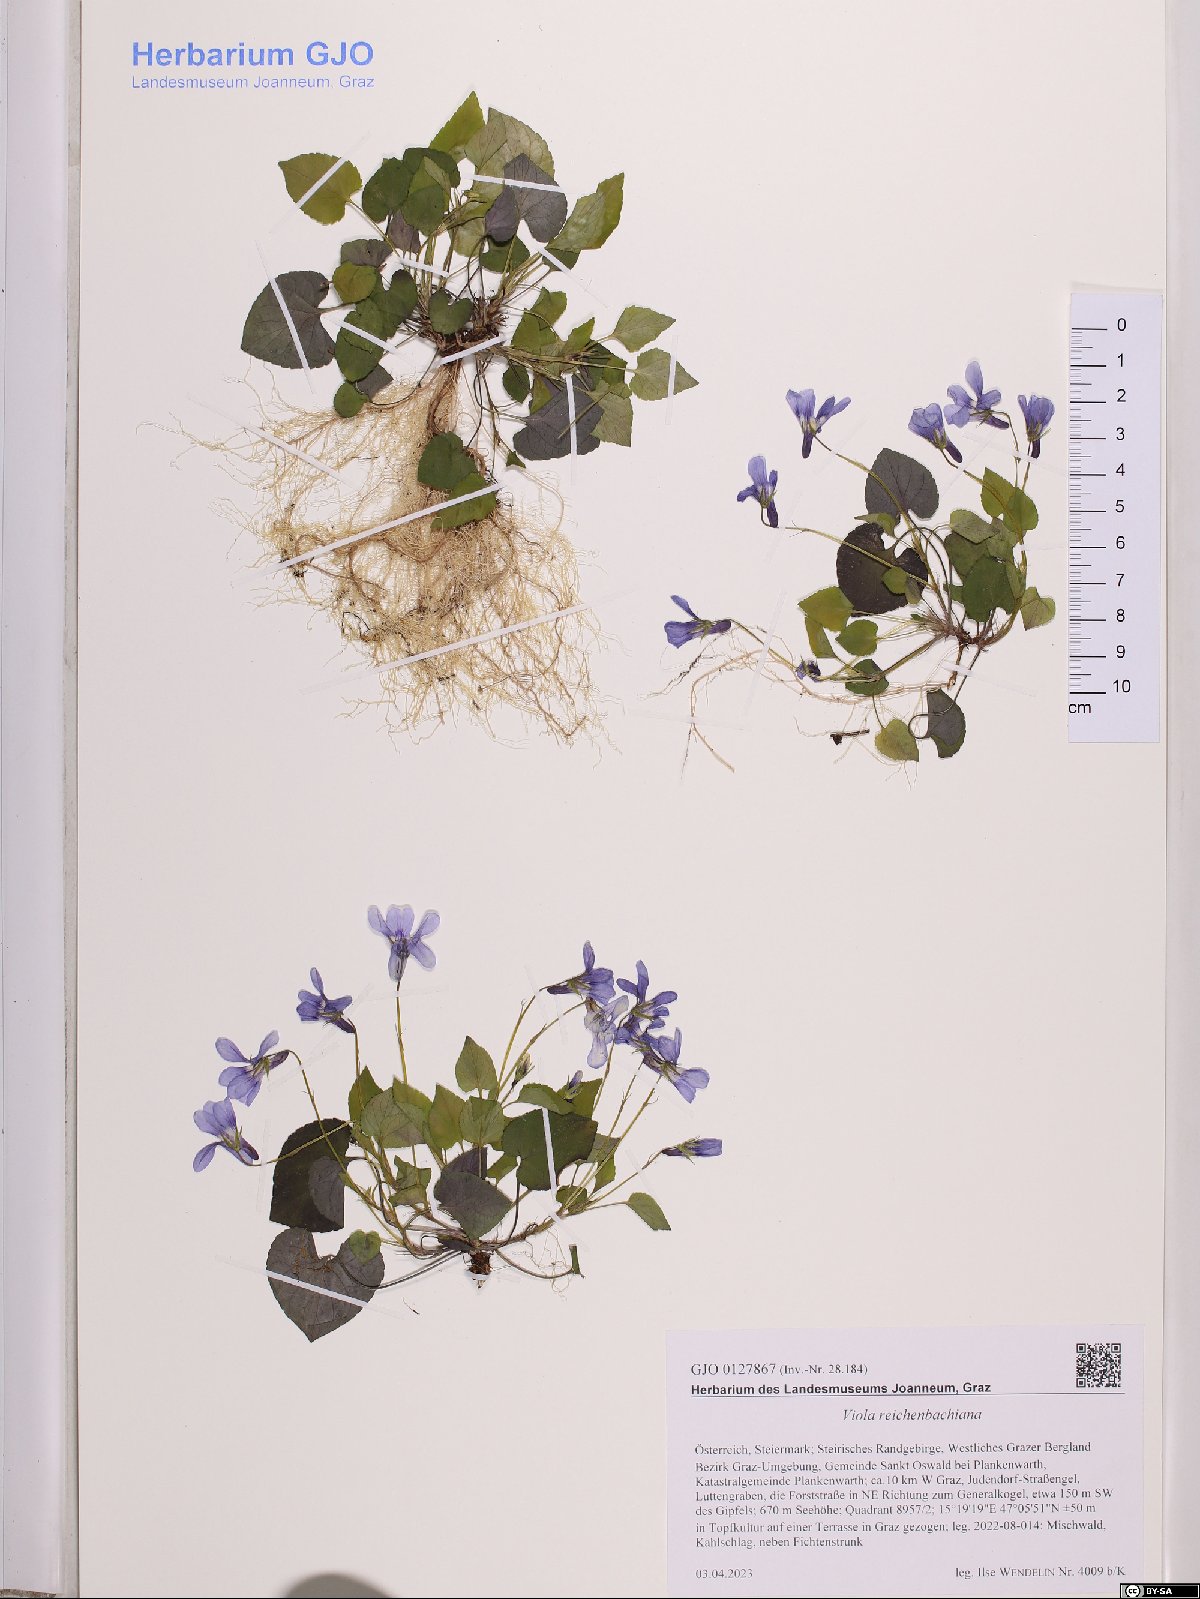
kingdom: Plantae
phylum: Tracheophyta
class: Magnoliopsida
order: Malpighiales
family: Violaceae
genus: Viola
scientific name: Viola reichenbachiana
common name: Early dog-violet
